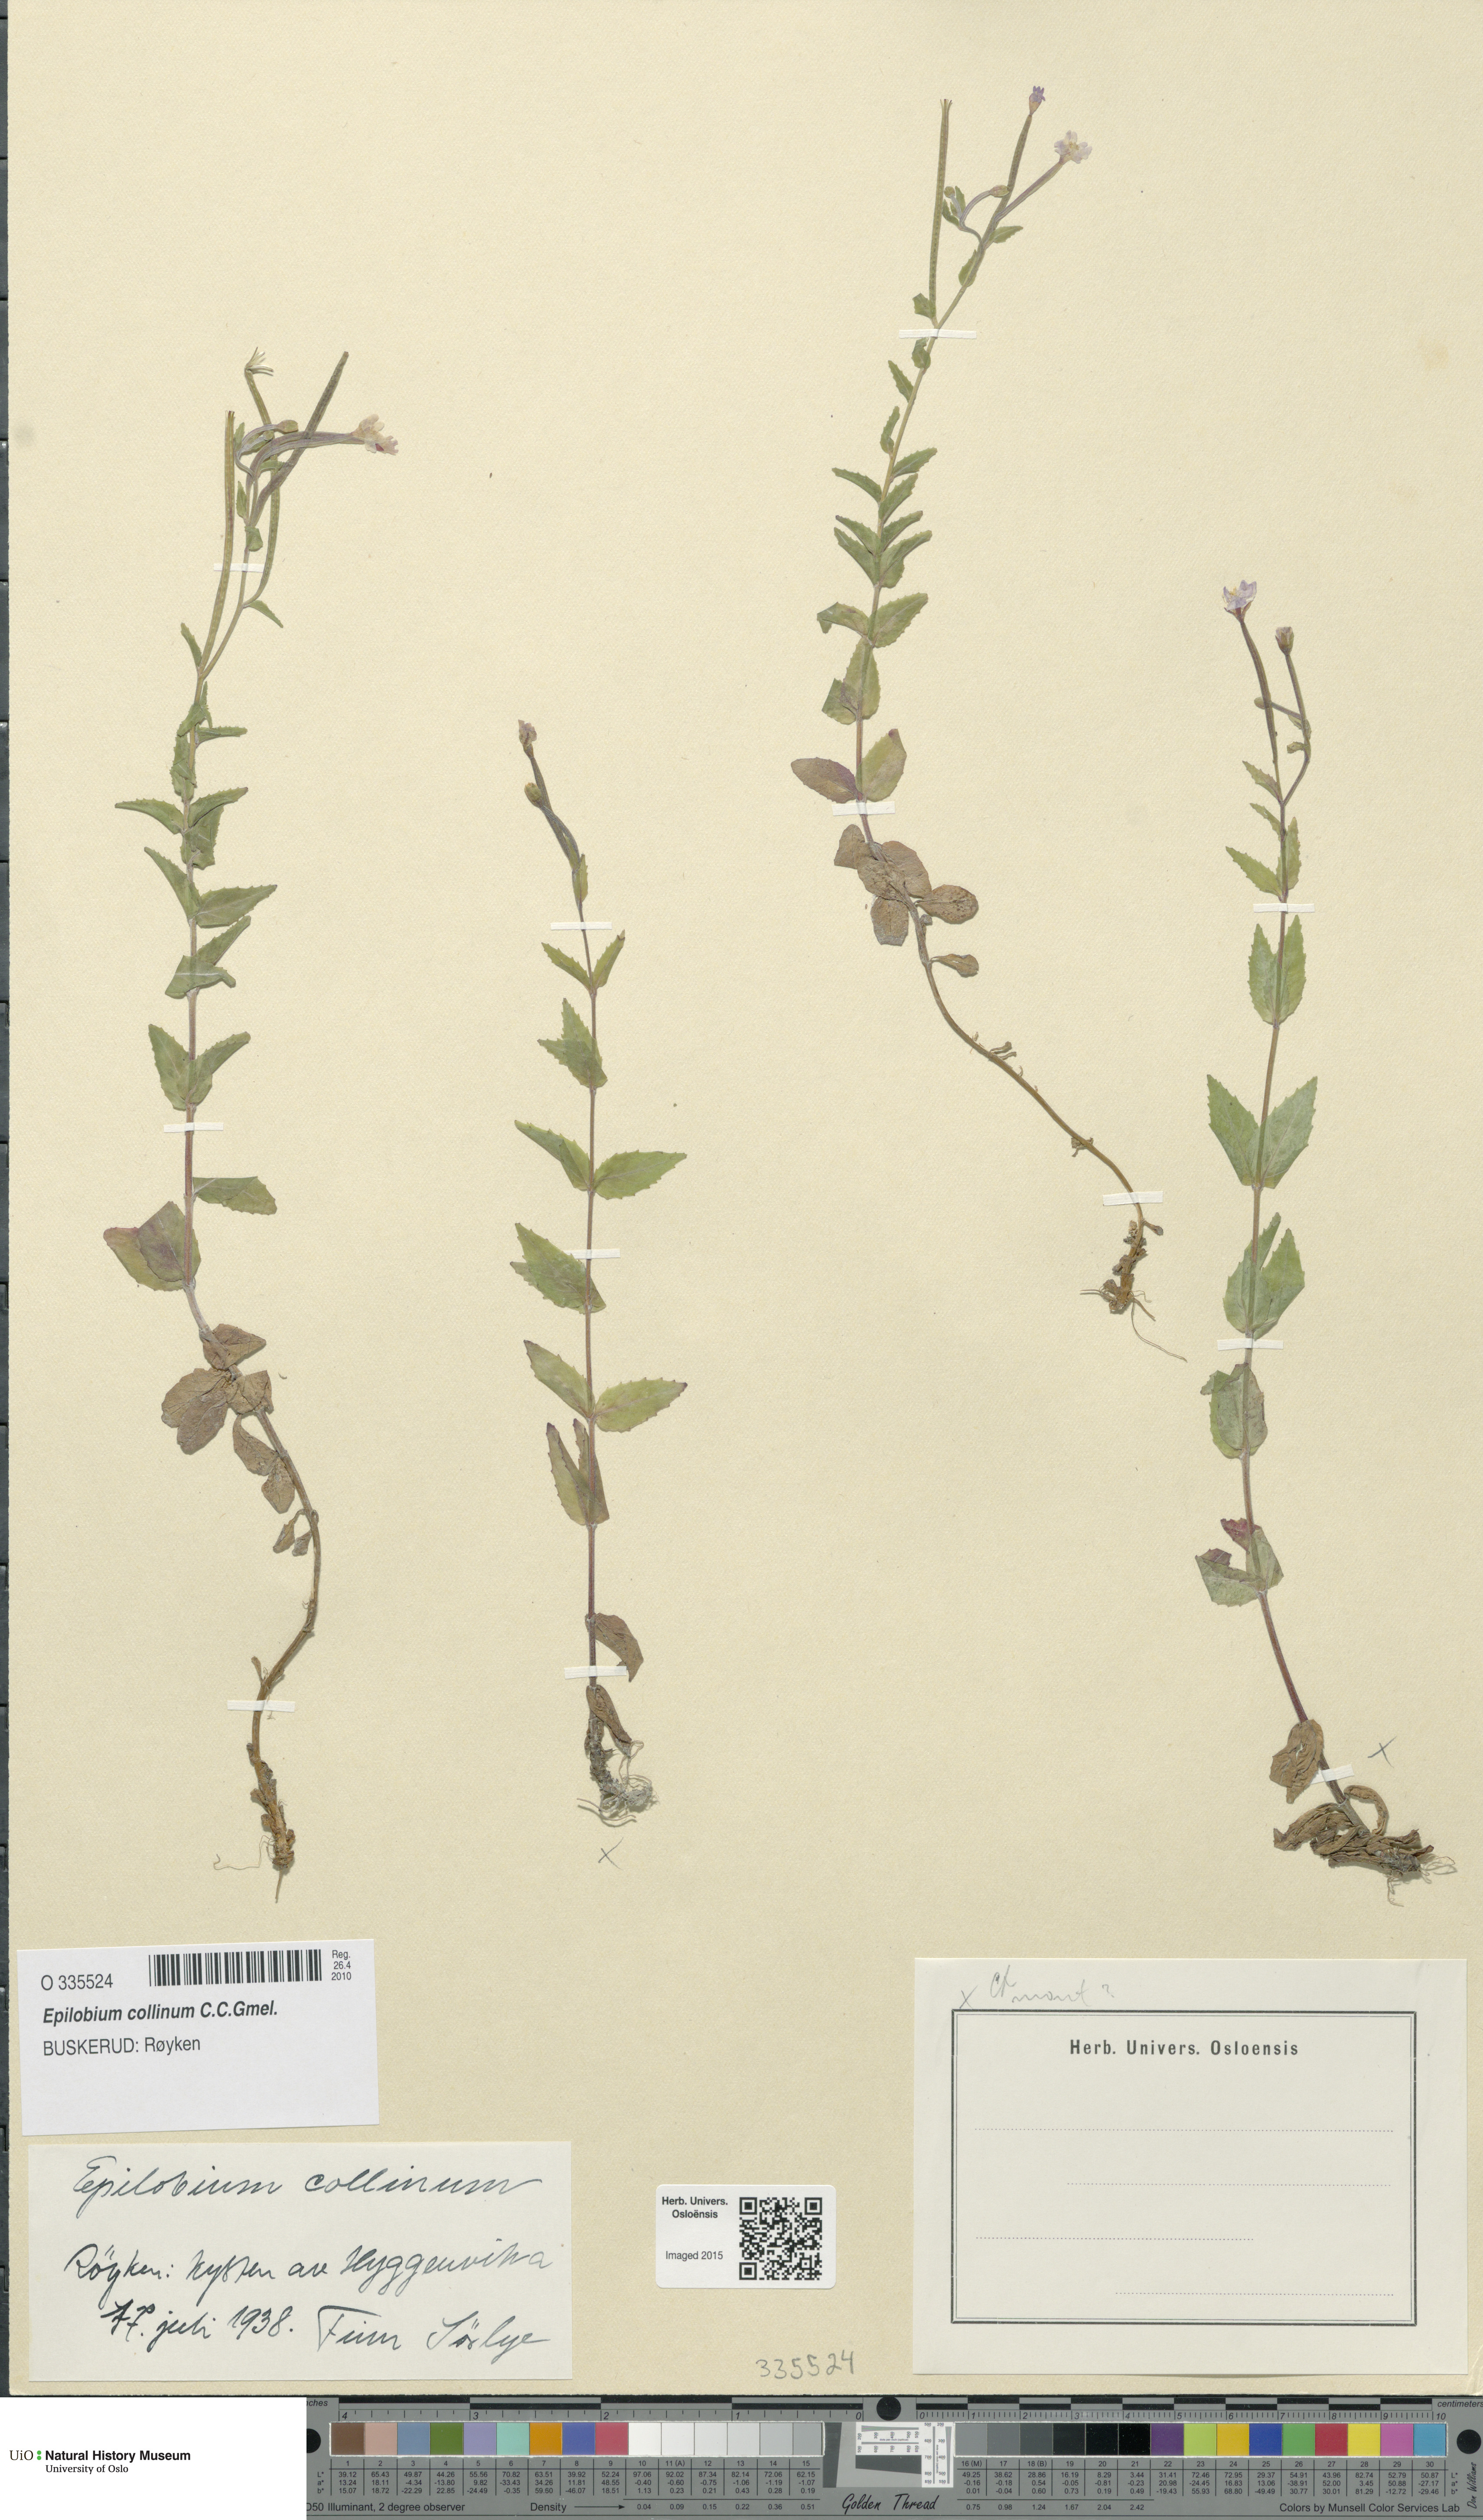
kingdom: Plantae
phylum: Tracheophyta
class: Magnoliopsida
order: Myrtales
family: Onagraceae
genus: Epilobium
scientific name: Epilobium collinum
